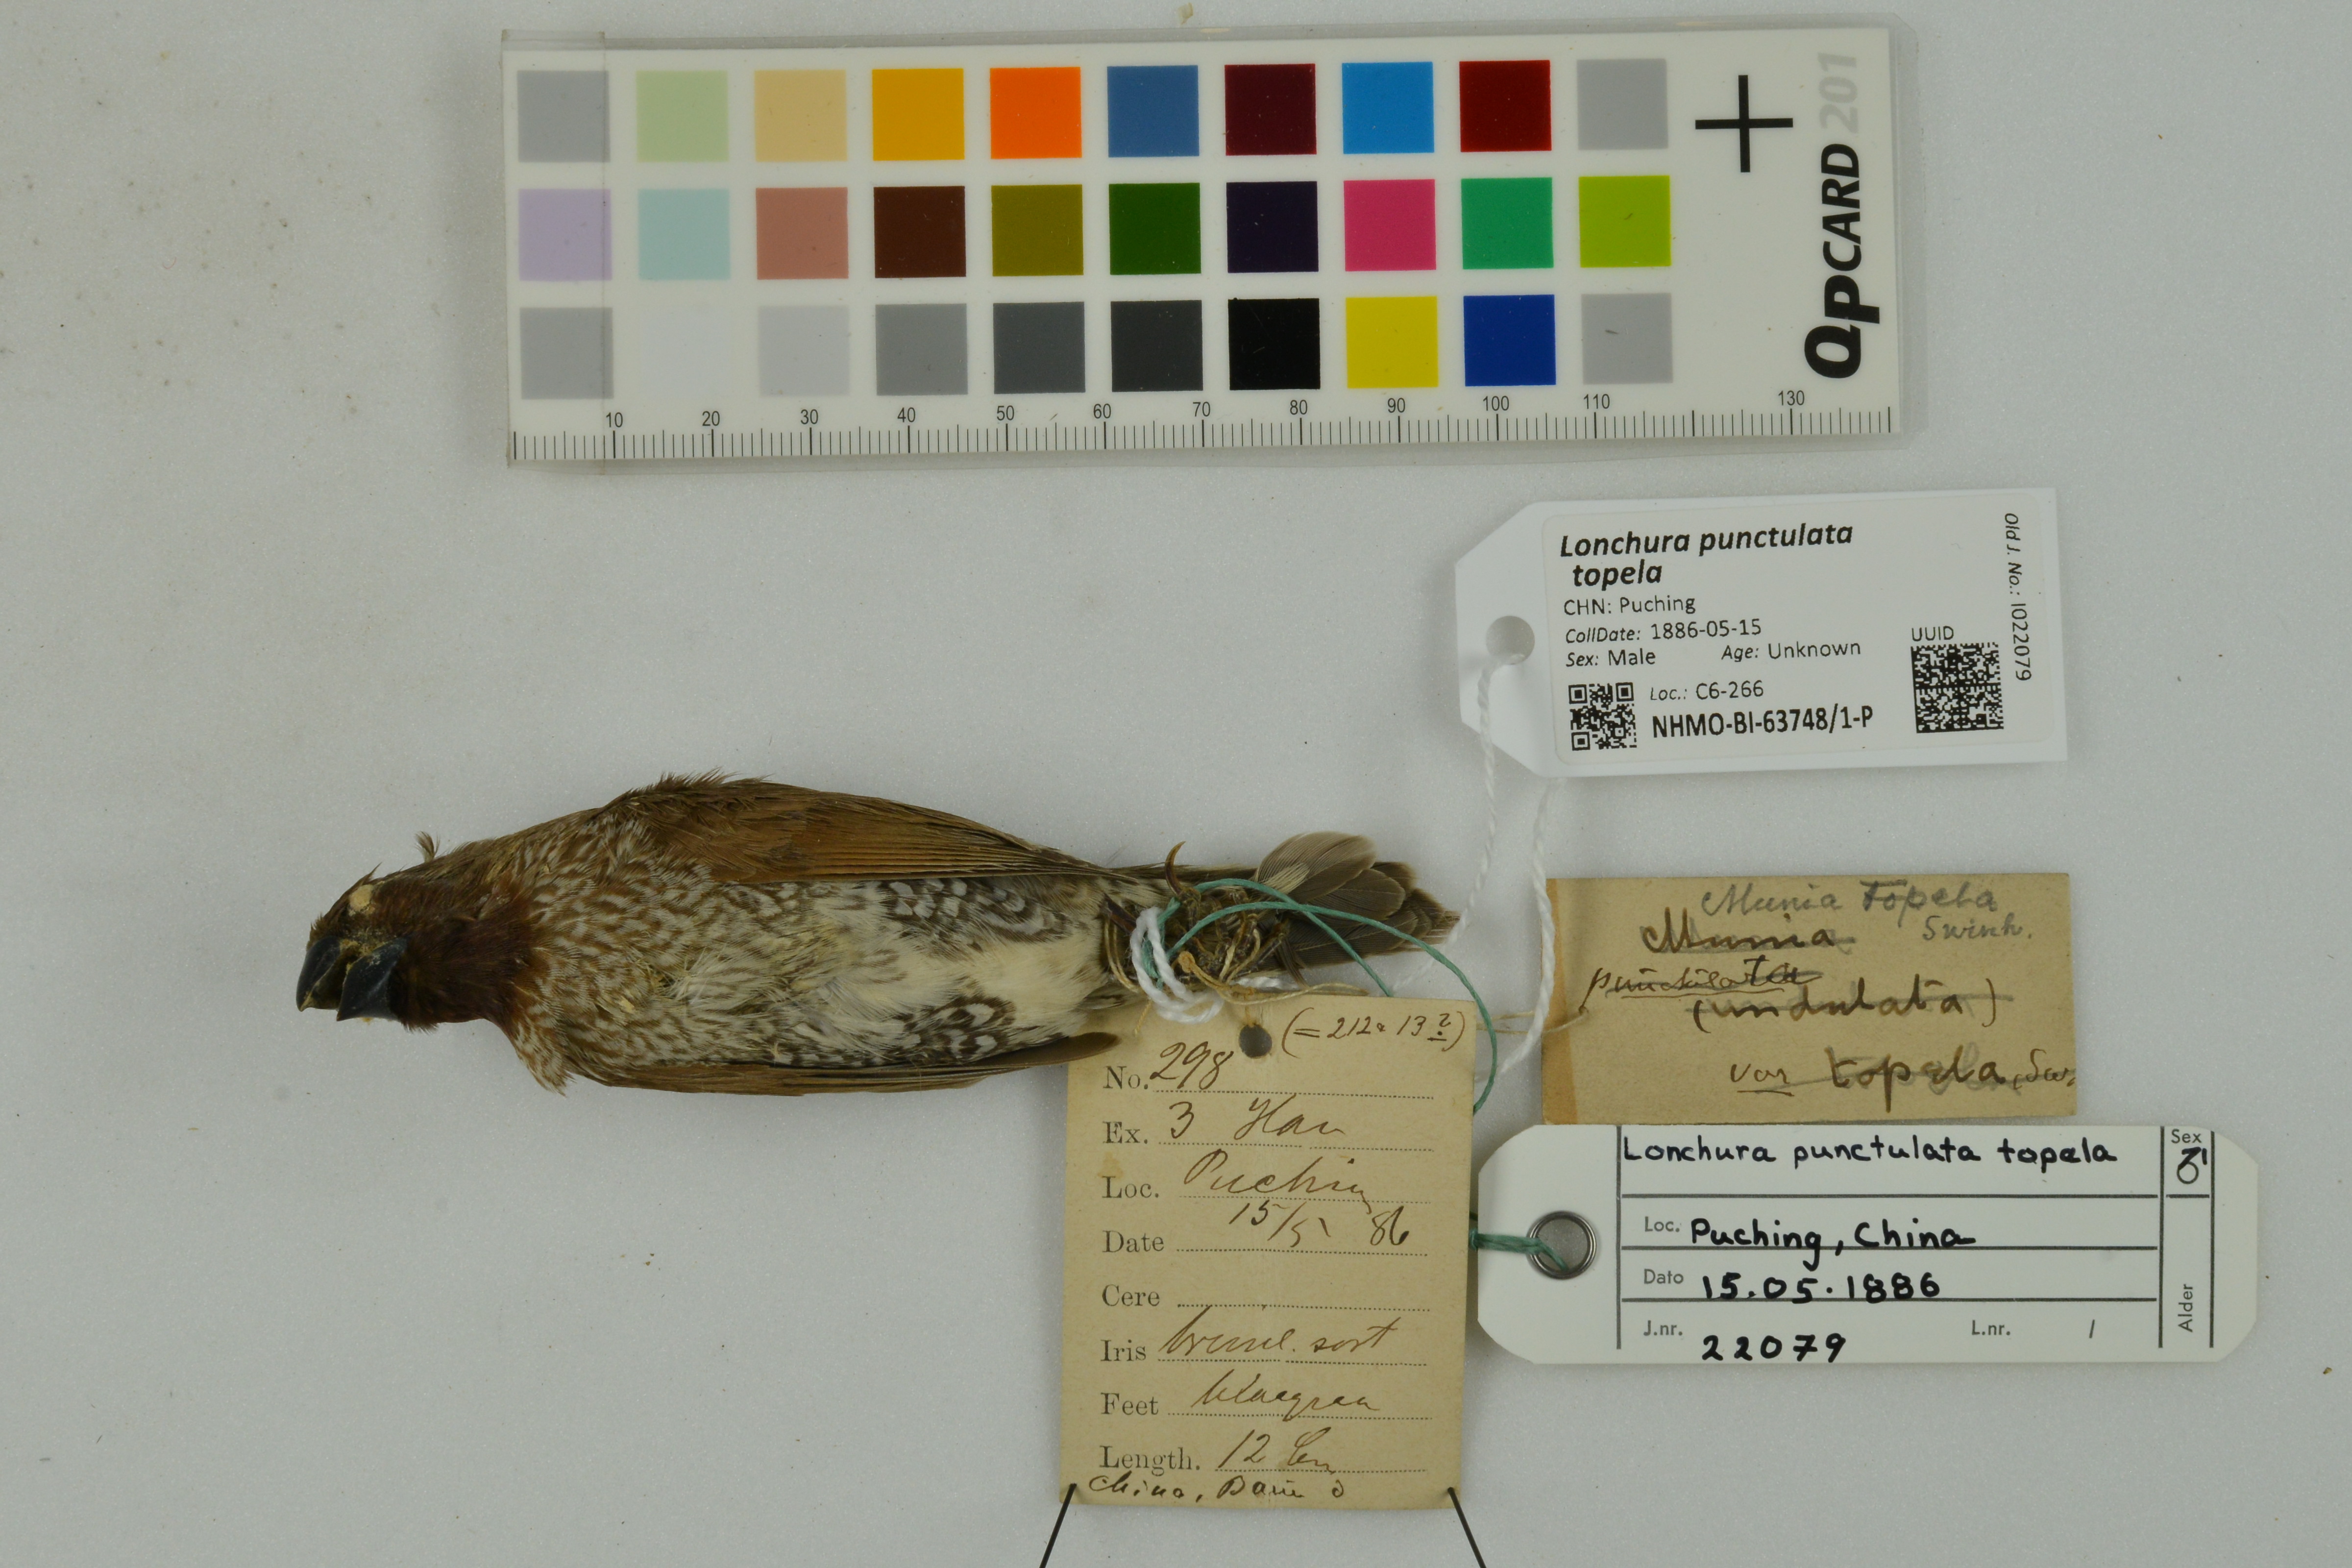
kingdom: Animalia
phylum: Chordata
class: Aves
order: Passeriformes
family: Estrildidae
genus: Lonchura
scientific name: Lonchura punctulata
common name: Scaly-breasted munia
